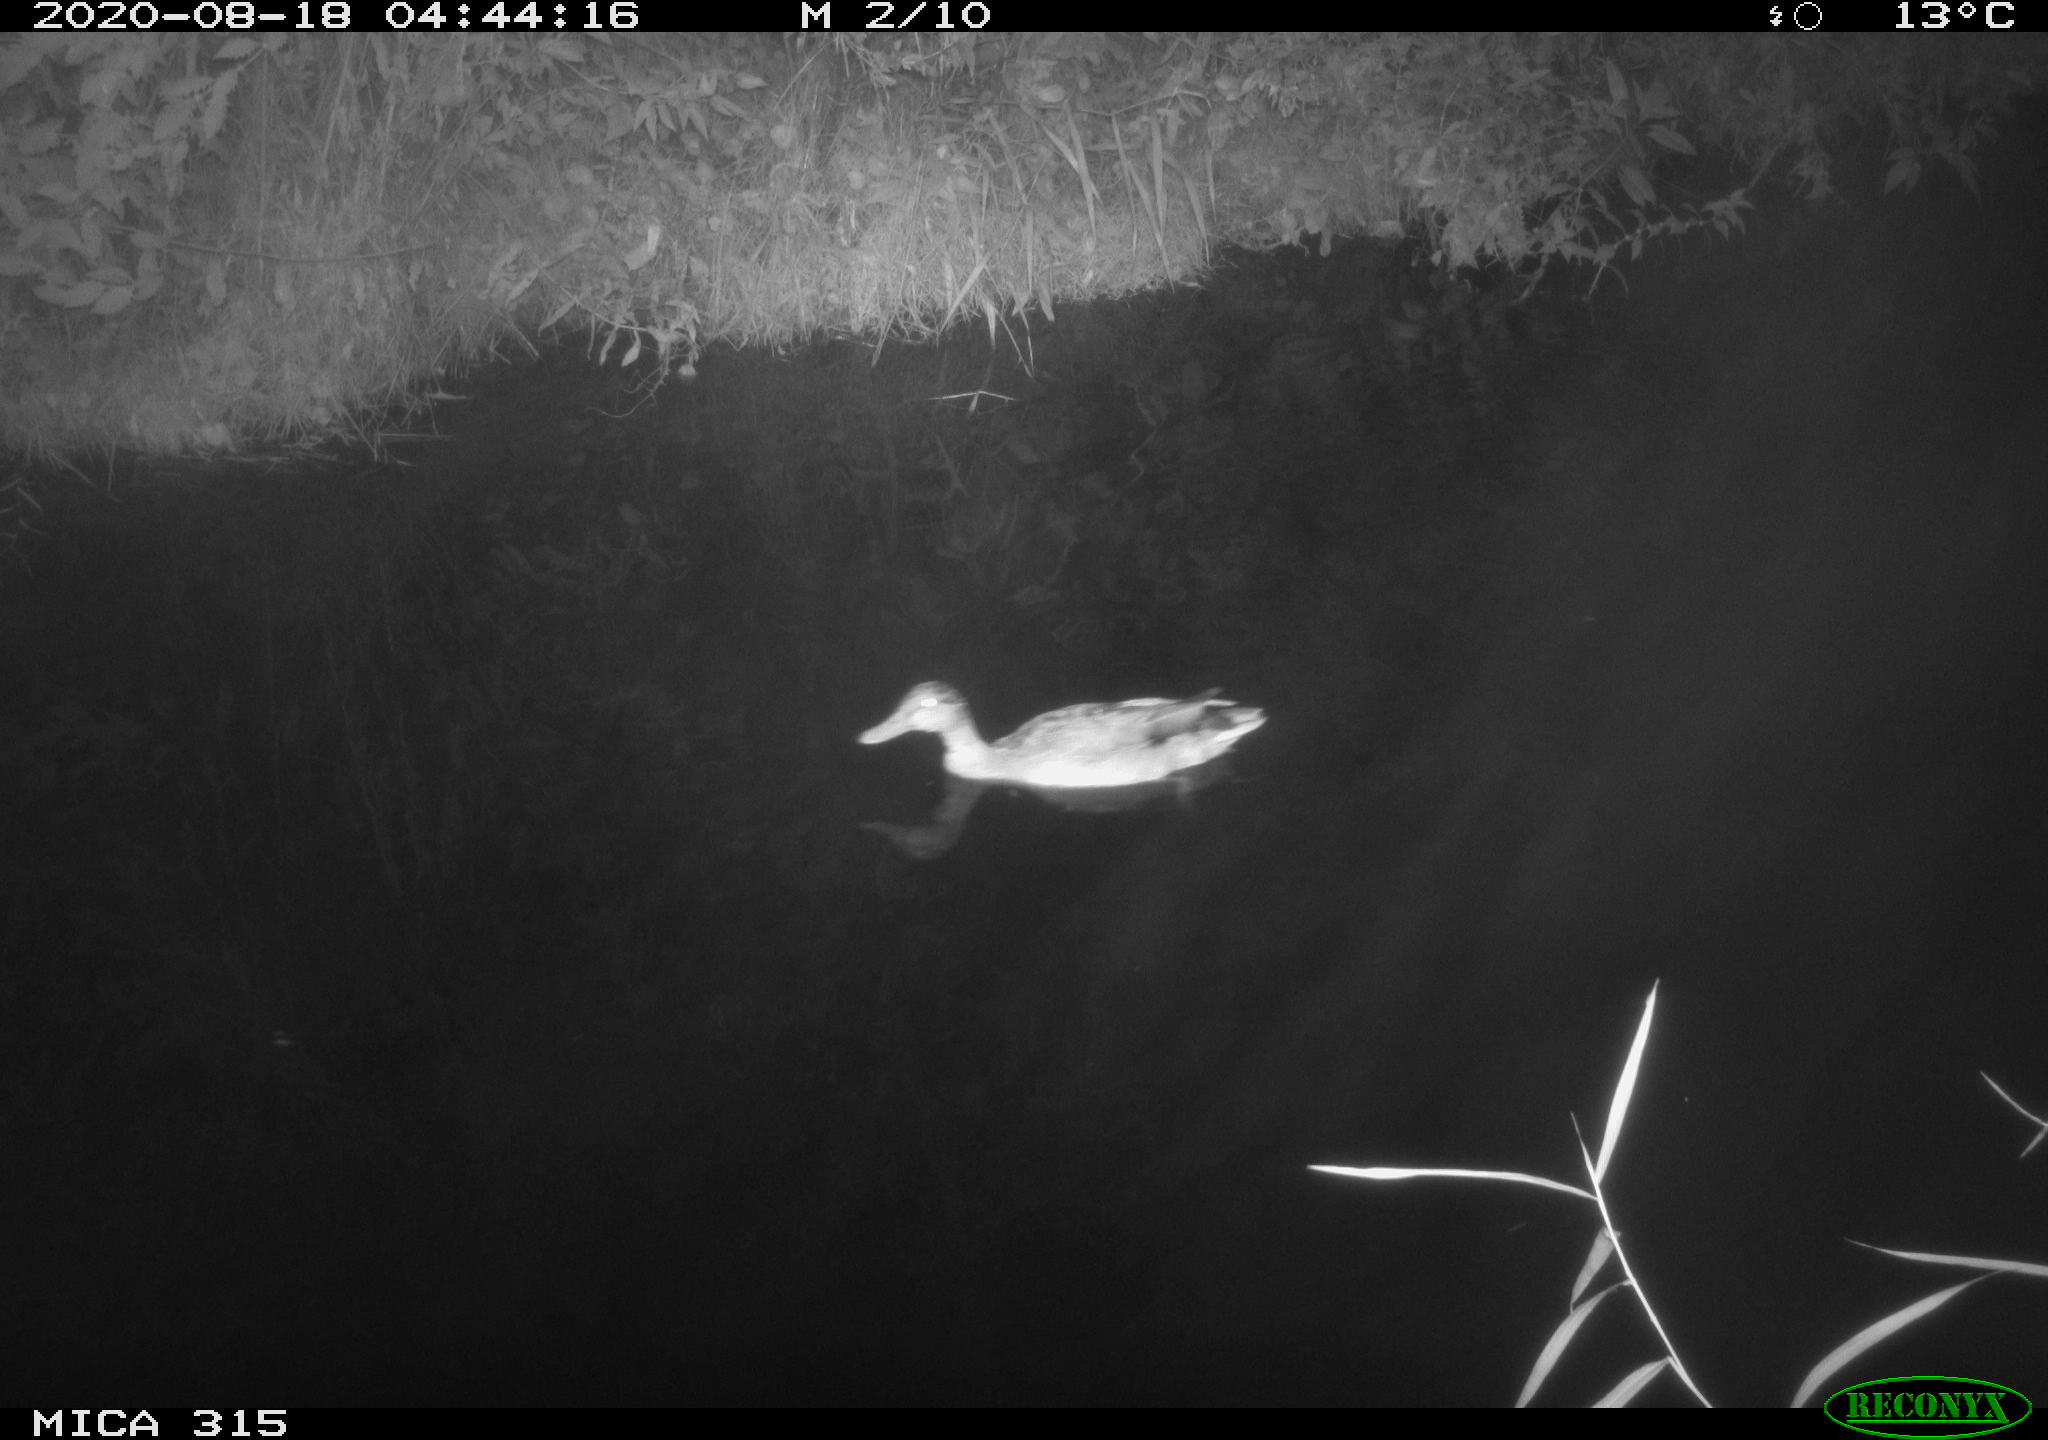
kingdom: Animalia
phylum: Chordata
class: Aves
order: Anseriformes
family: Anatidae
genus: Anas
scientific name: Anas platyrhynchos
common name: Mallard
